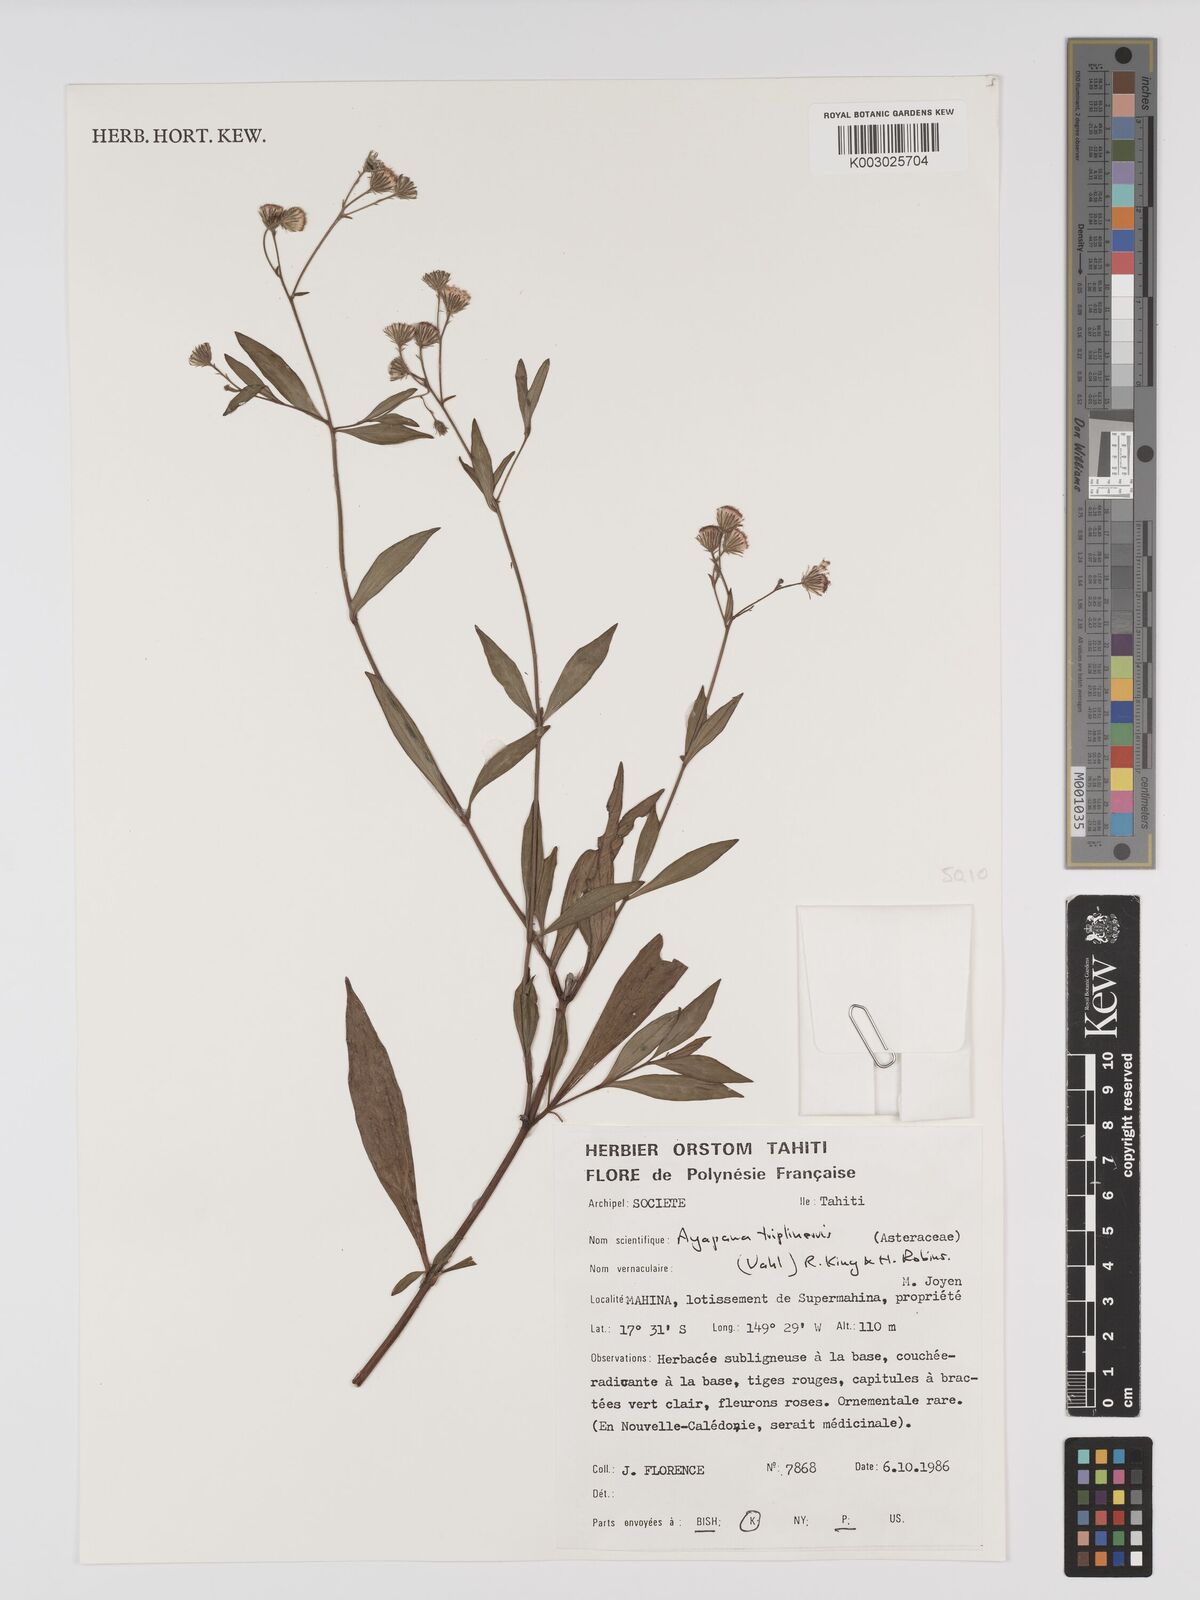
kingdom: Plantae
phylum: Tracheophyta
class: Magnoliopsida
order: Asterales
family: Asteraceae
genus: Ayapana
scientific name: Ayapana triplinervis
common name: Triplinerved eupatorium
